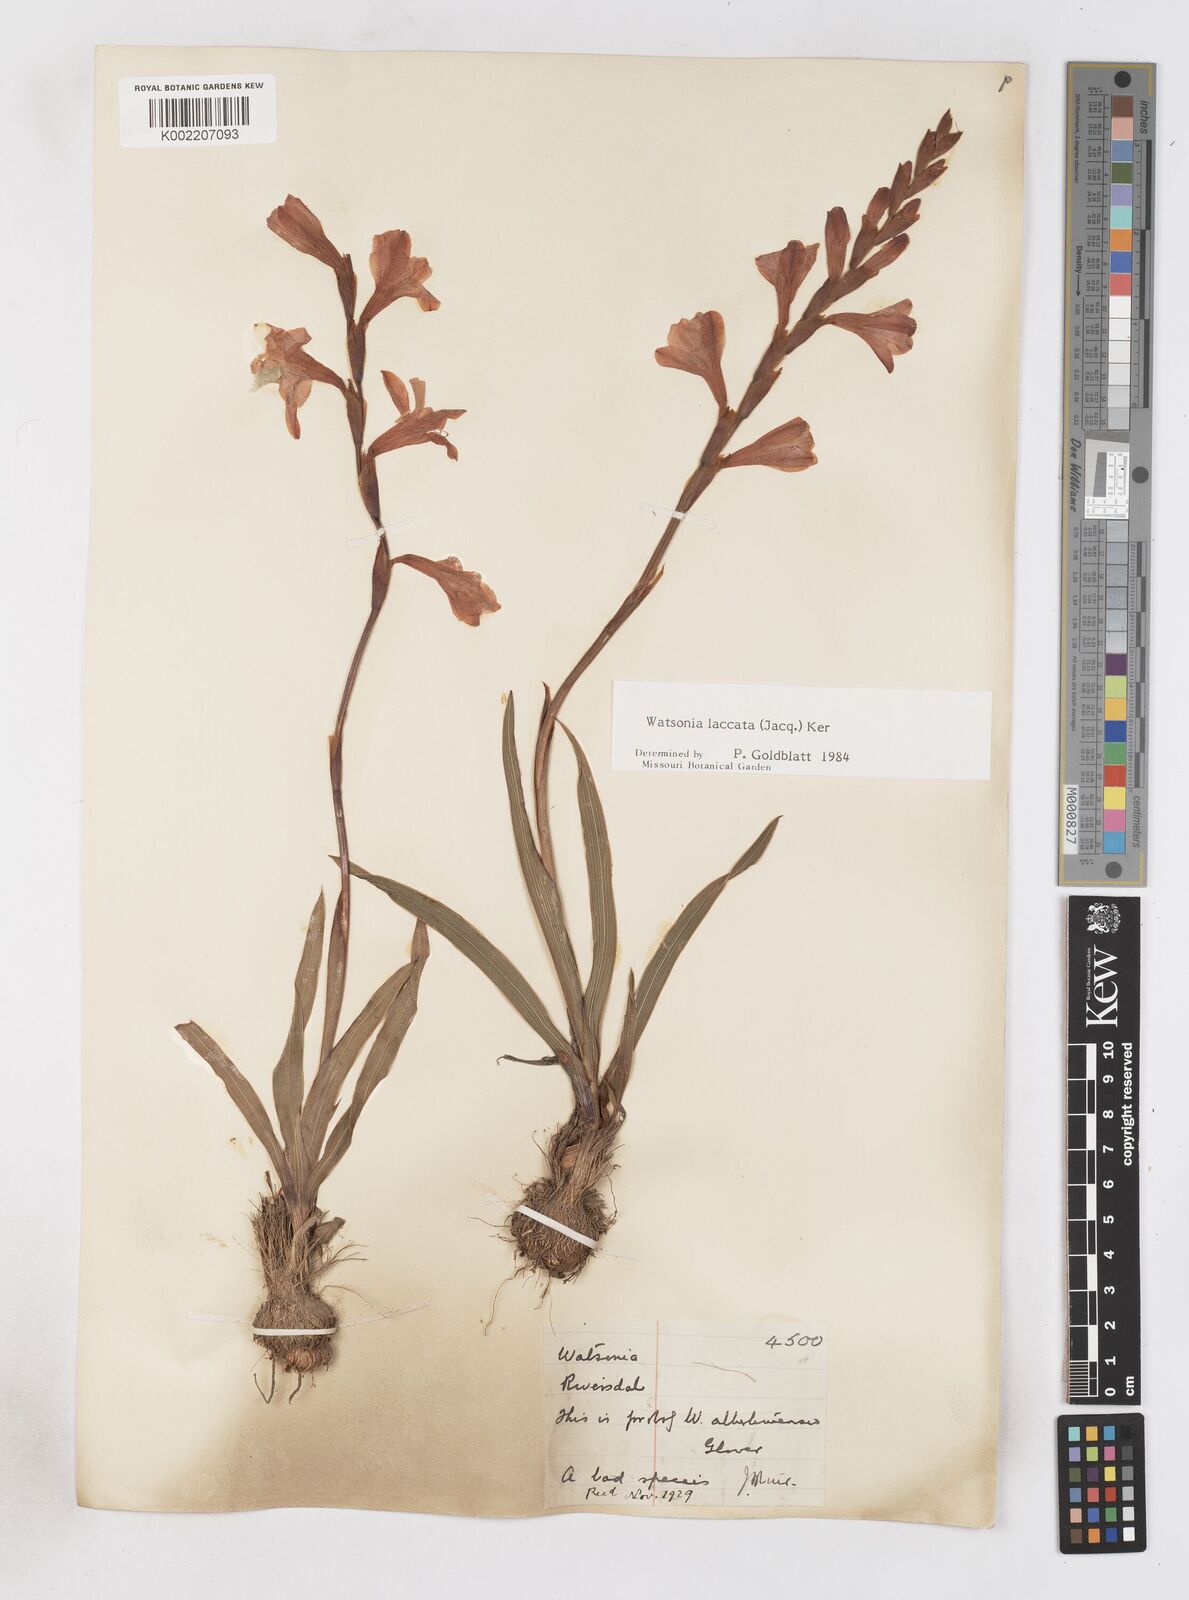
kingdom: Plantae
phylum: Tracheophyta
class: Liliopsida
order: Asparagales
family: Iridaceae
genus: Watsonia
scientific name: Watsonia laccata
